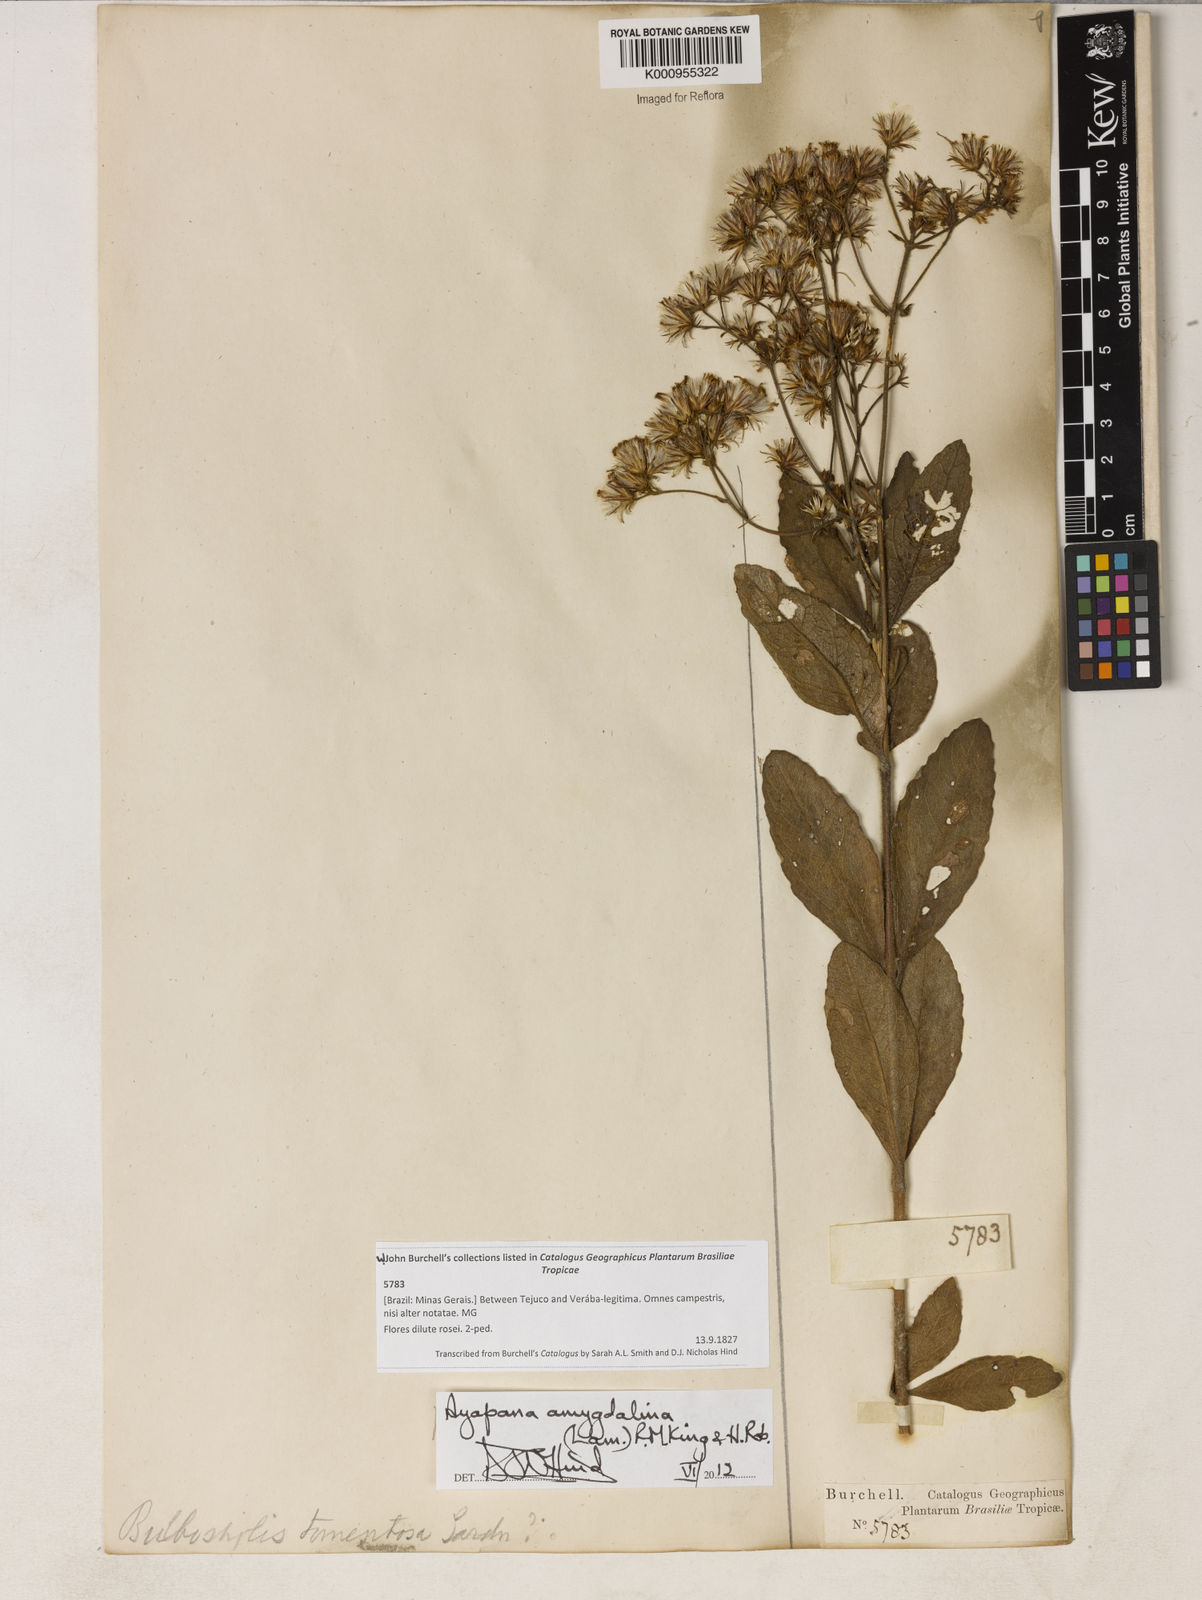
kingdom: Plantae
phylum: Tracheophyta
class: Magnoliopsida
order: Asterales
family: Asteraceae
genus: Ayapana
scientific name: Ayapana amygdalina
